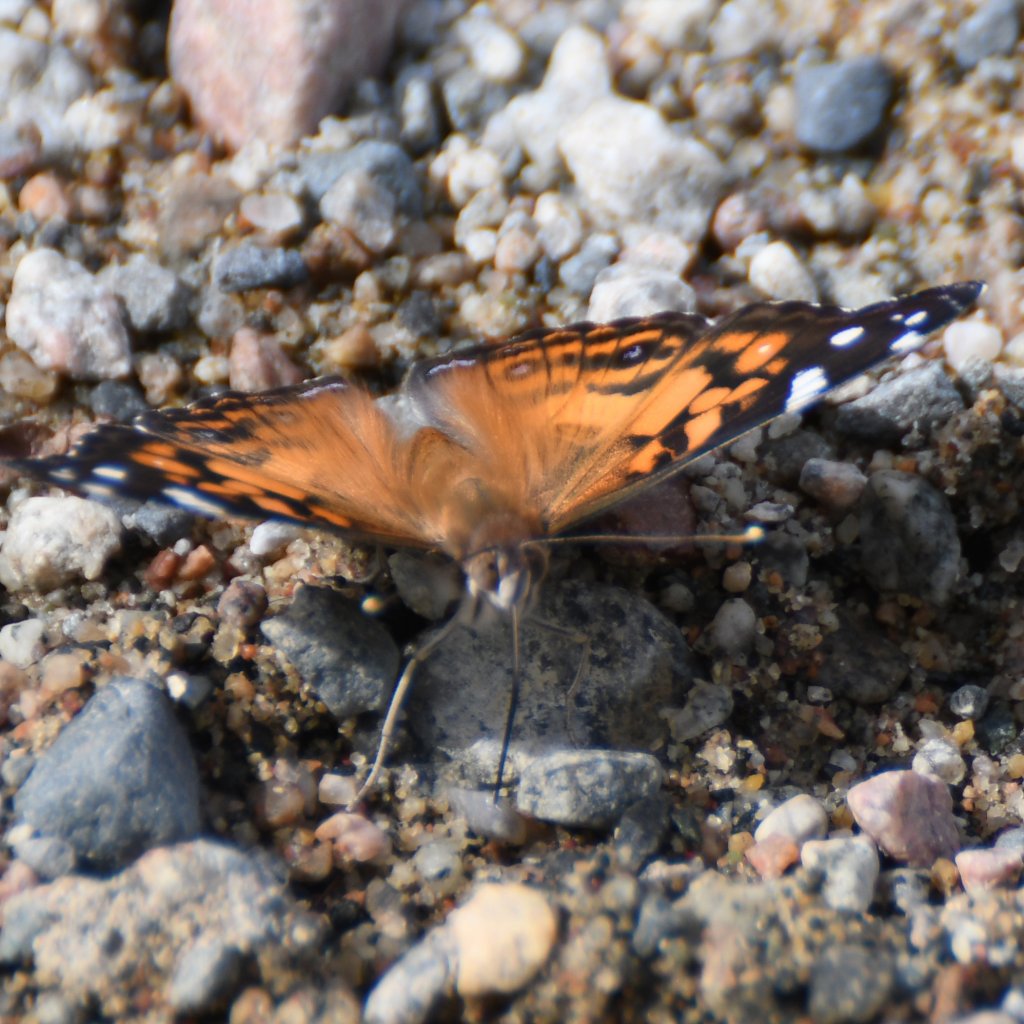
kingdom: Animalia
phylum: Arthropoda
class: Insecta
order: Lepidoptera
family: Nymphalidae
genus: Vanessa
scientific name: Vanessa virginiensis
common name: American Lady
